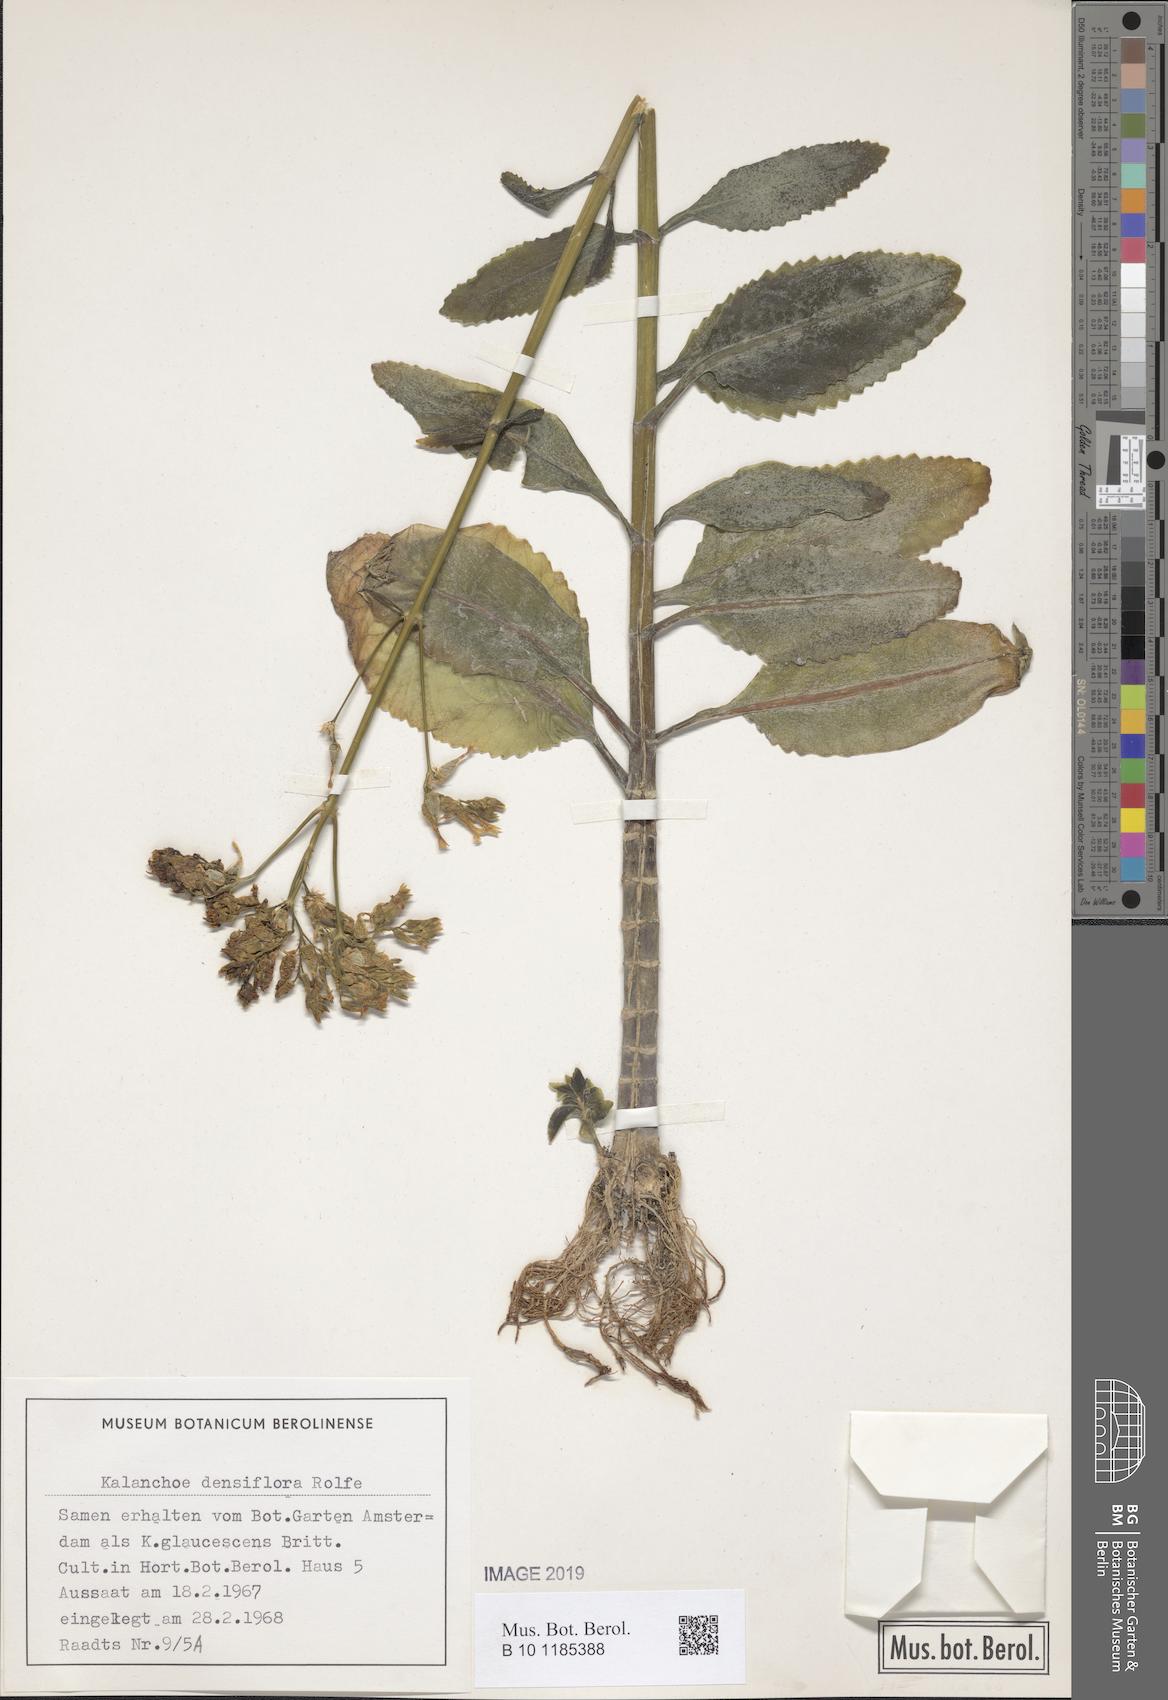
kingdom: Plantae
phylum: Tracheophyta
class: Magnoliopsida
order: Saxifragales
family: Crassulaceae
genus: Kalanchoe
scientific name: Kalanchoe densiflora
